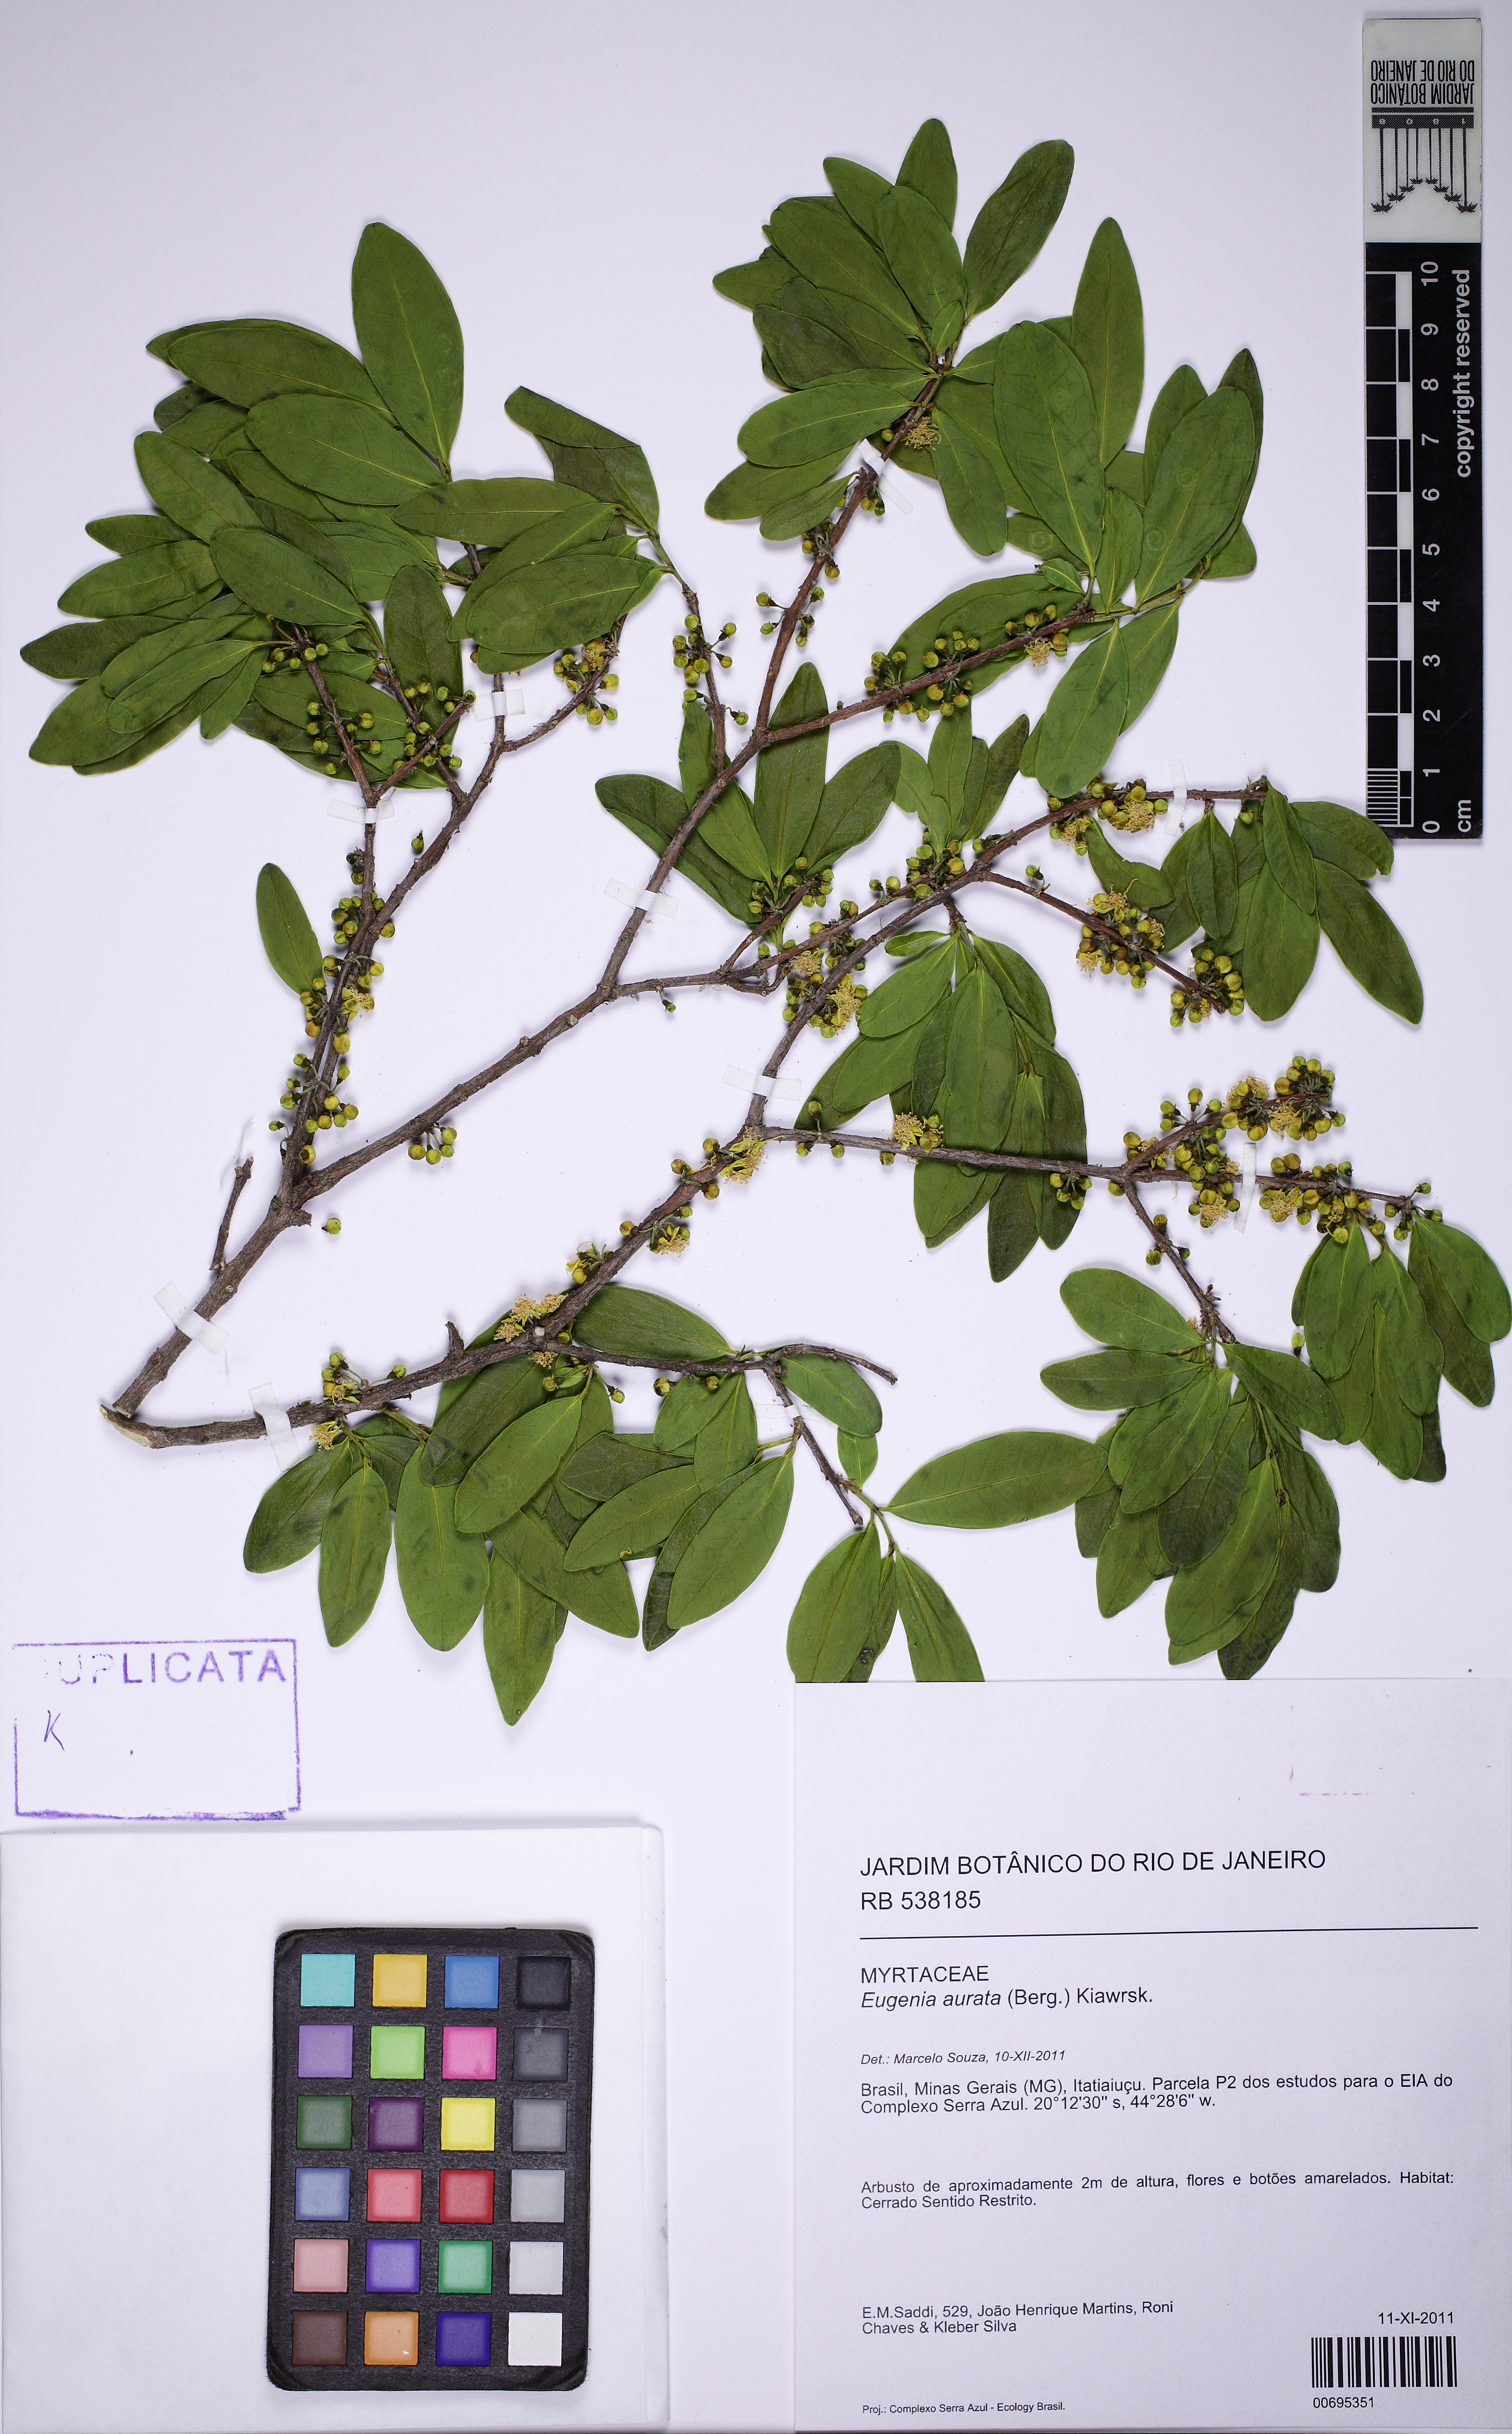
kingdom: Plantae
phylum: Tracheophyta
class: Magnoliopsida
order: Myrtales
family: Myrtaceae
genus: Eugenia
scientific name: Eugenia aurata
